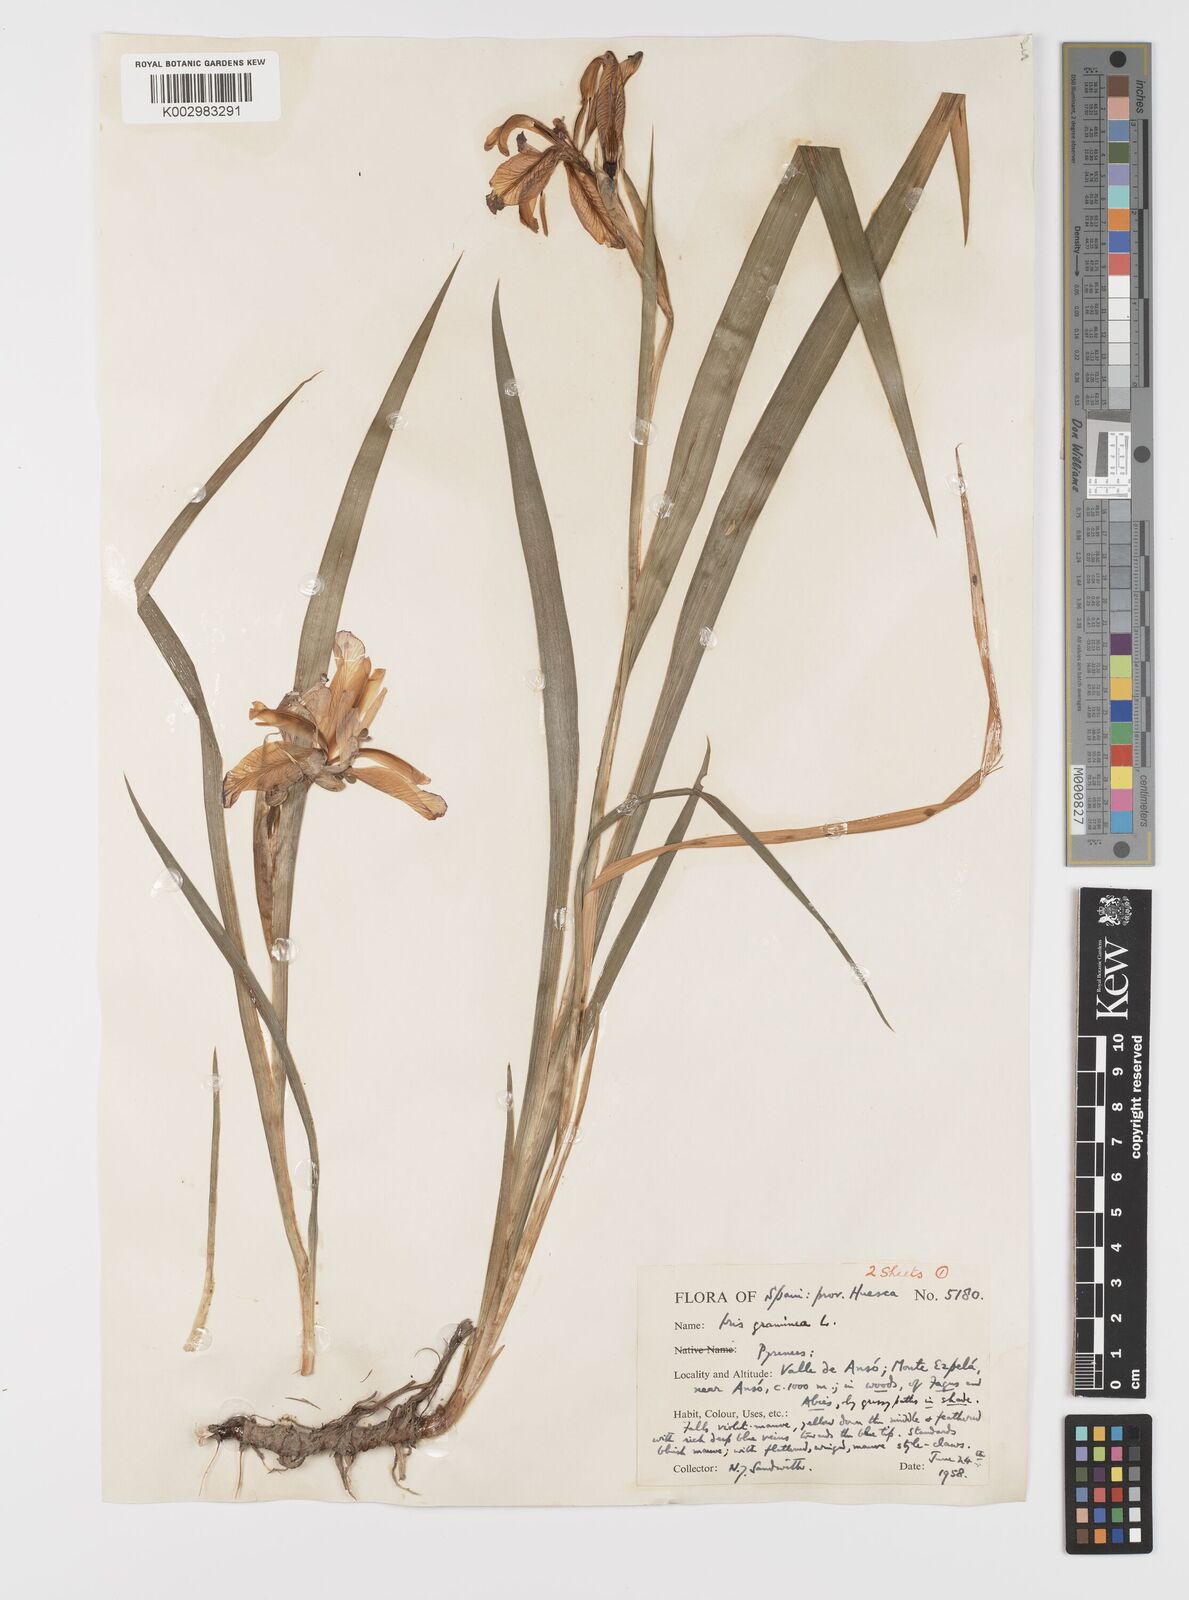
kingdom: Plantae
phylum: Tracheophyta
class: Liliopsida
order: Asparagales
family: Iridaceae
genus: Iris
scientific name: Iris graminea
